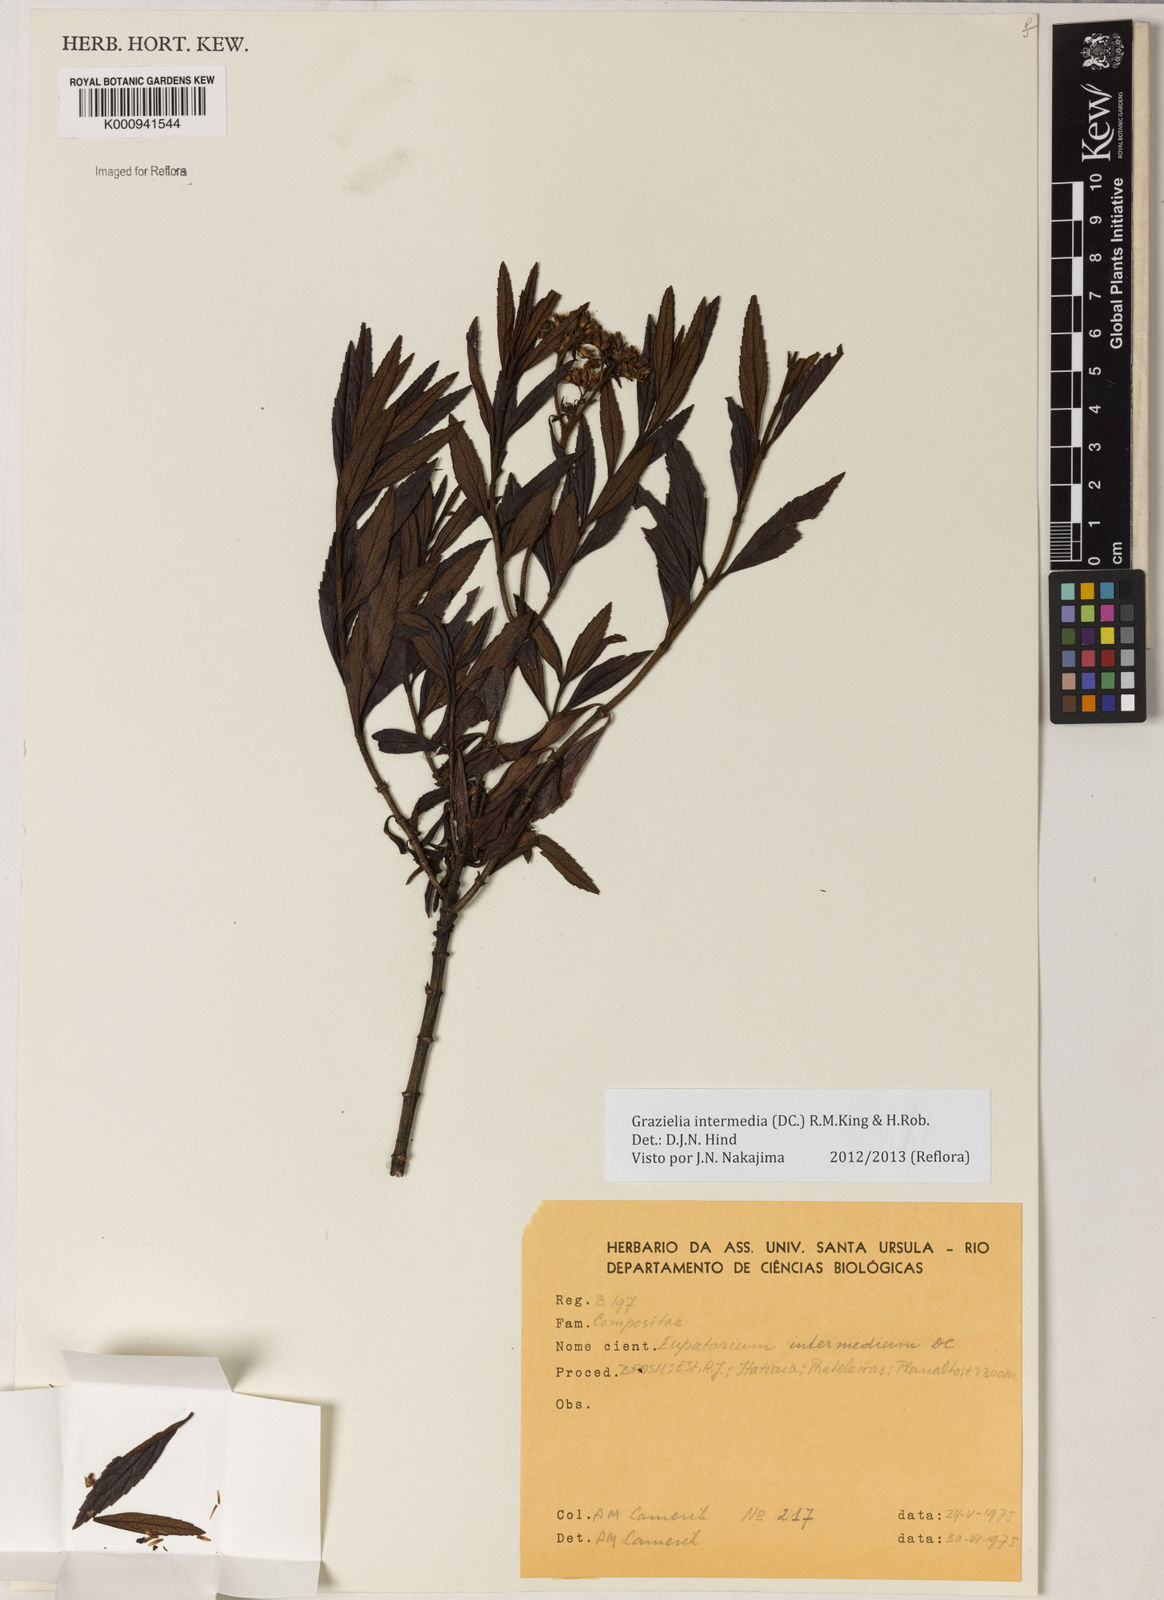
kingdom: Plantae
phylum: Tracheophyta
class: Magnoliopsida
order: Asterales
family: Asteraceae
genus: Grazielia
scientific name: Grazielia intermedia
